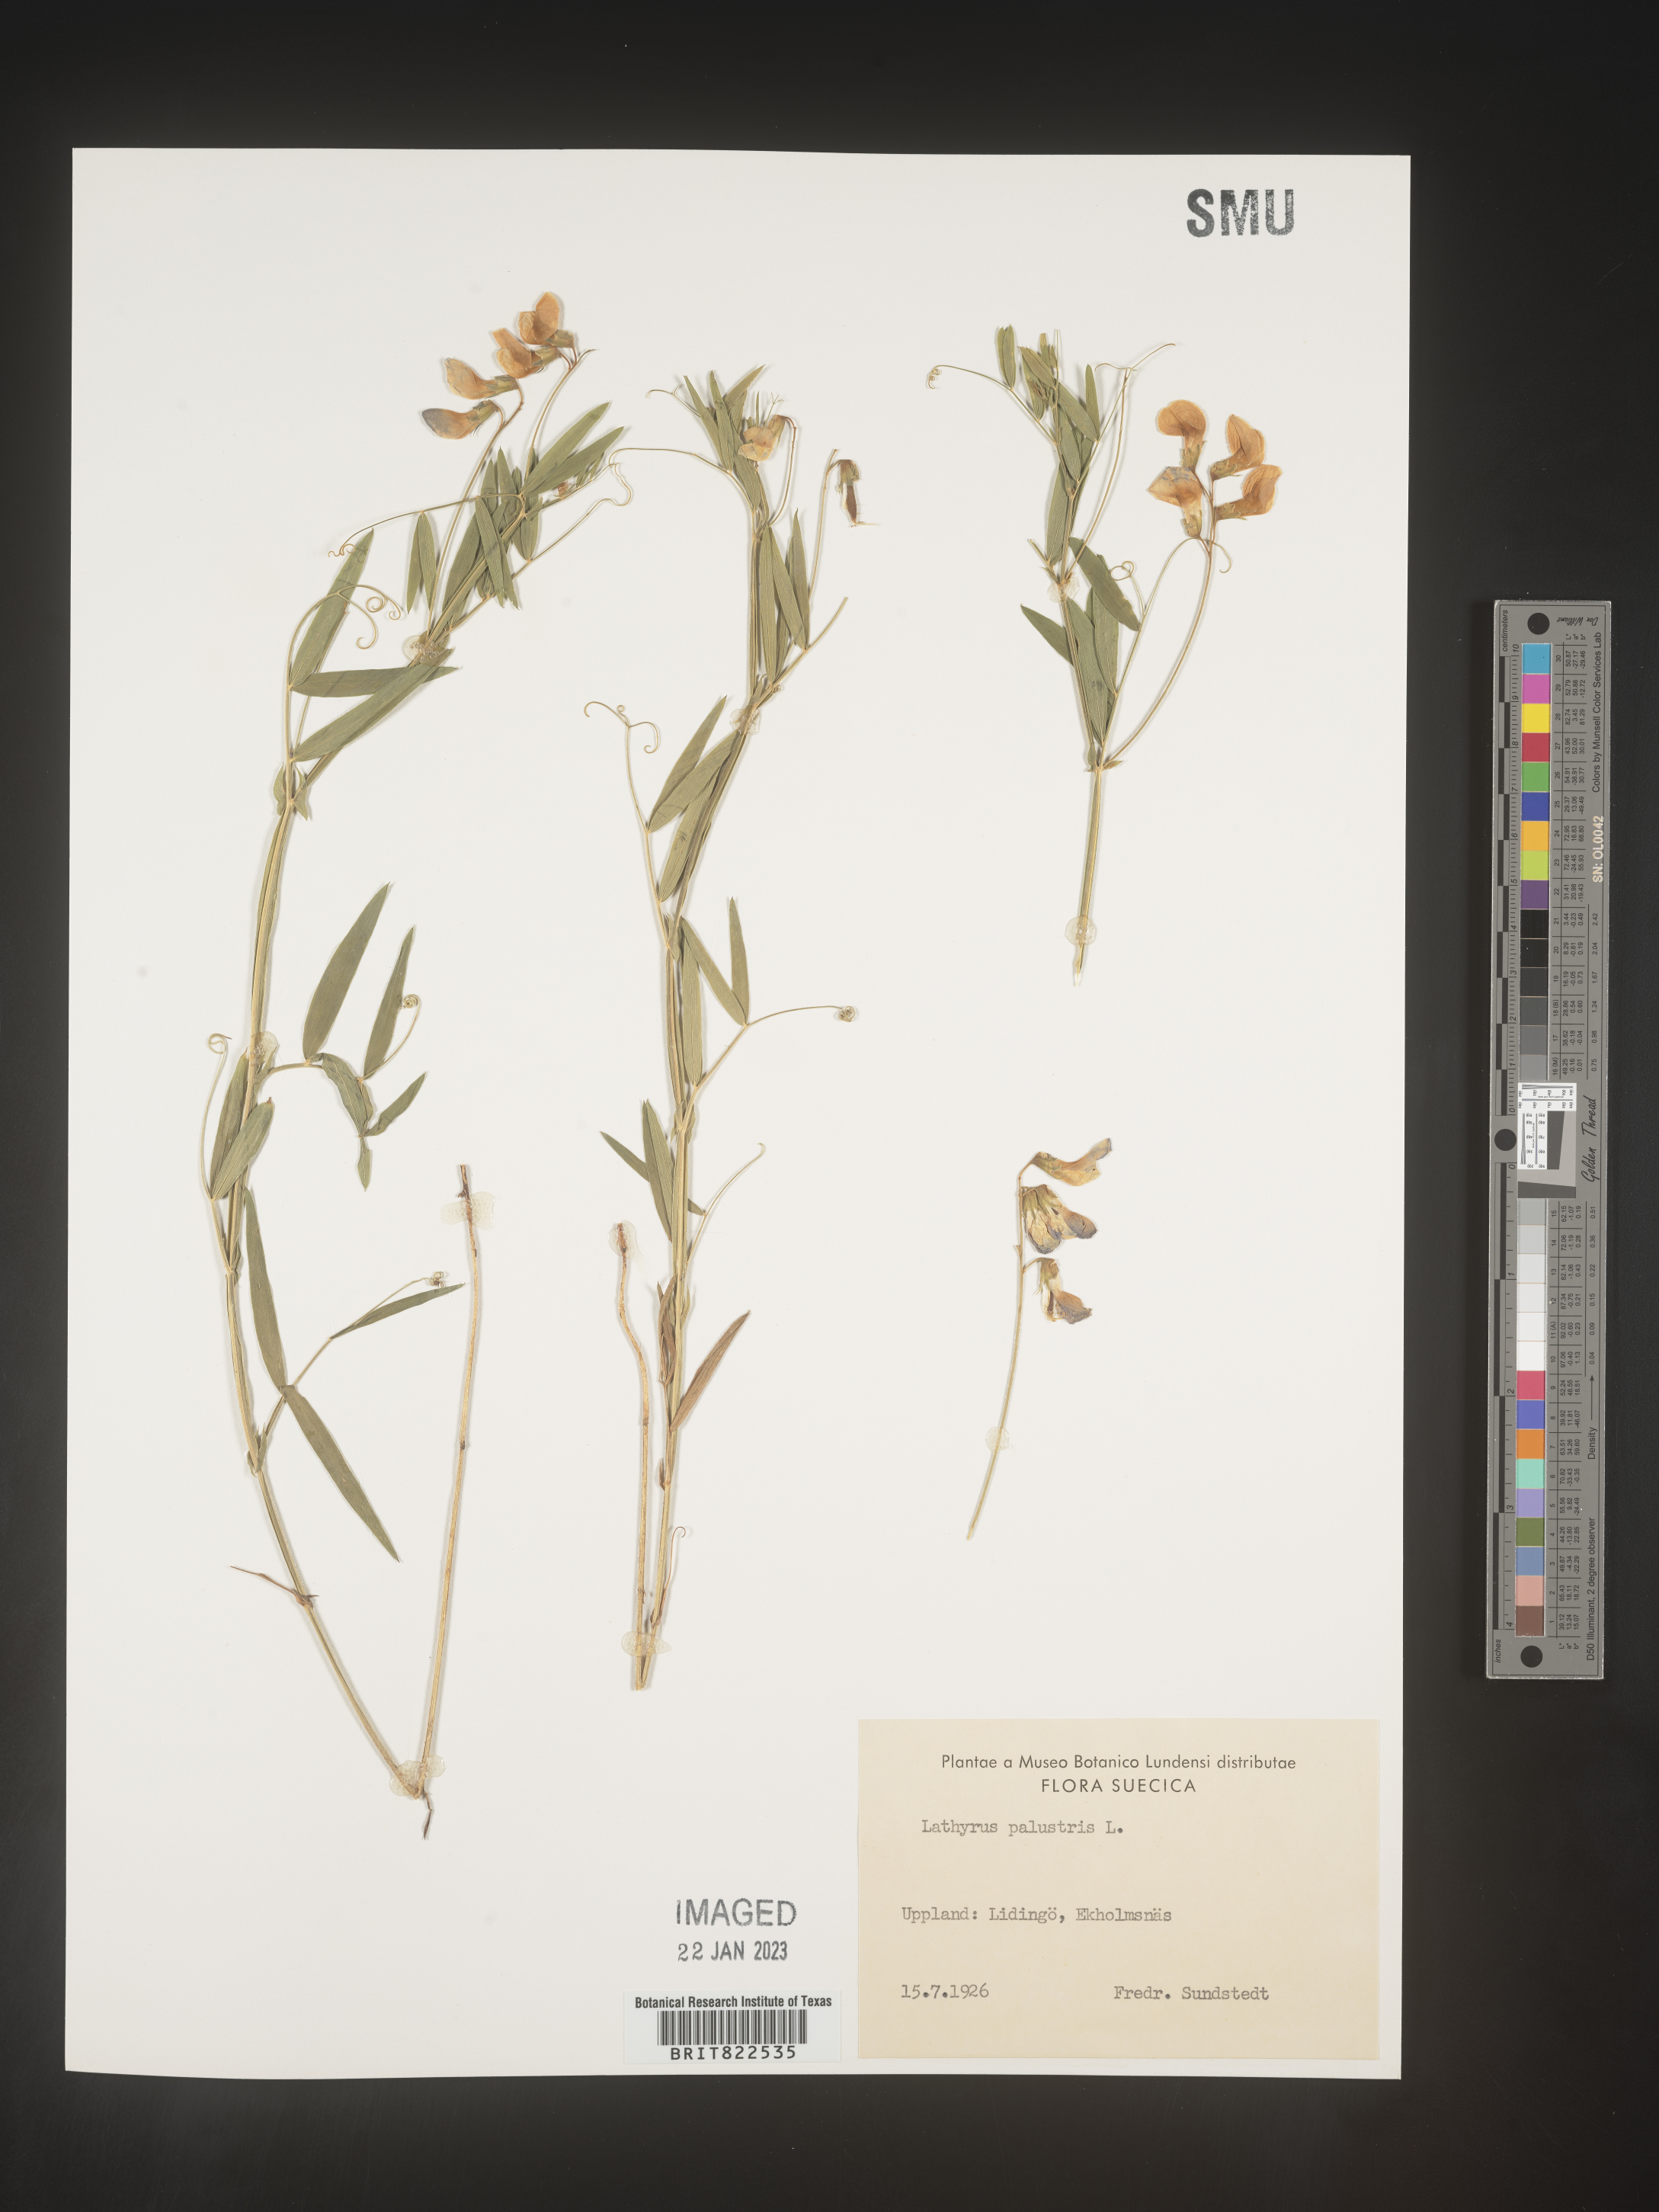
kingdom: Plantae
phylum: Tracheophyta
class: Magnoliopsida
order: Fabales
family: Fabaceae
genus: Lathyrus
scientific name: Lathyrus
